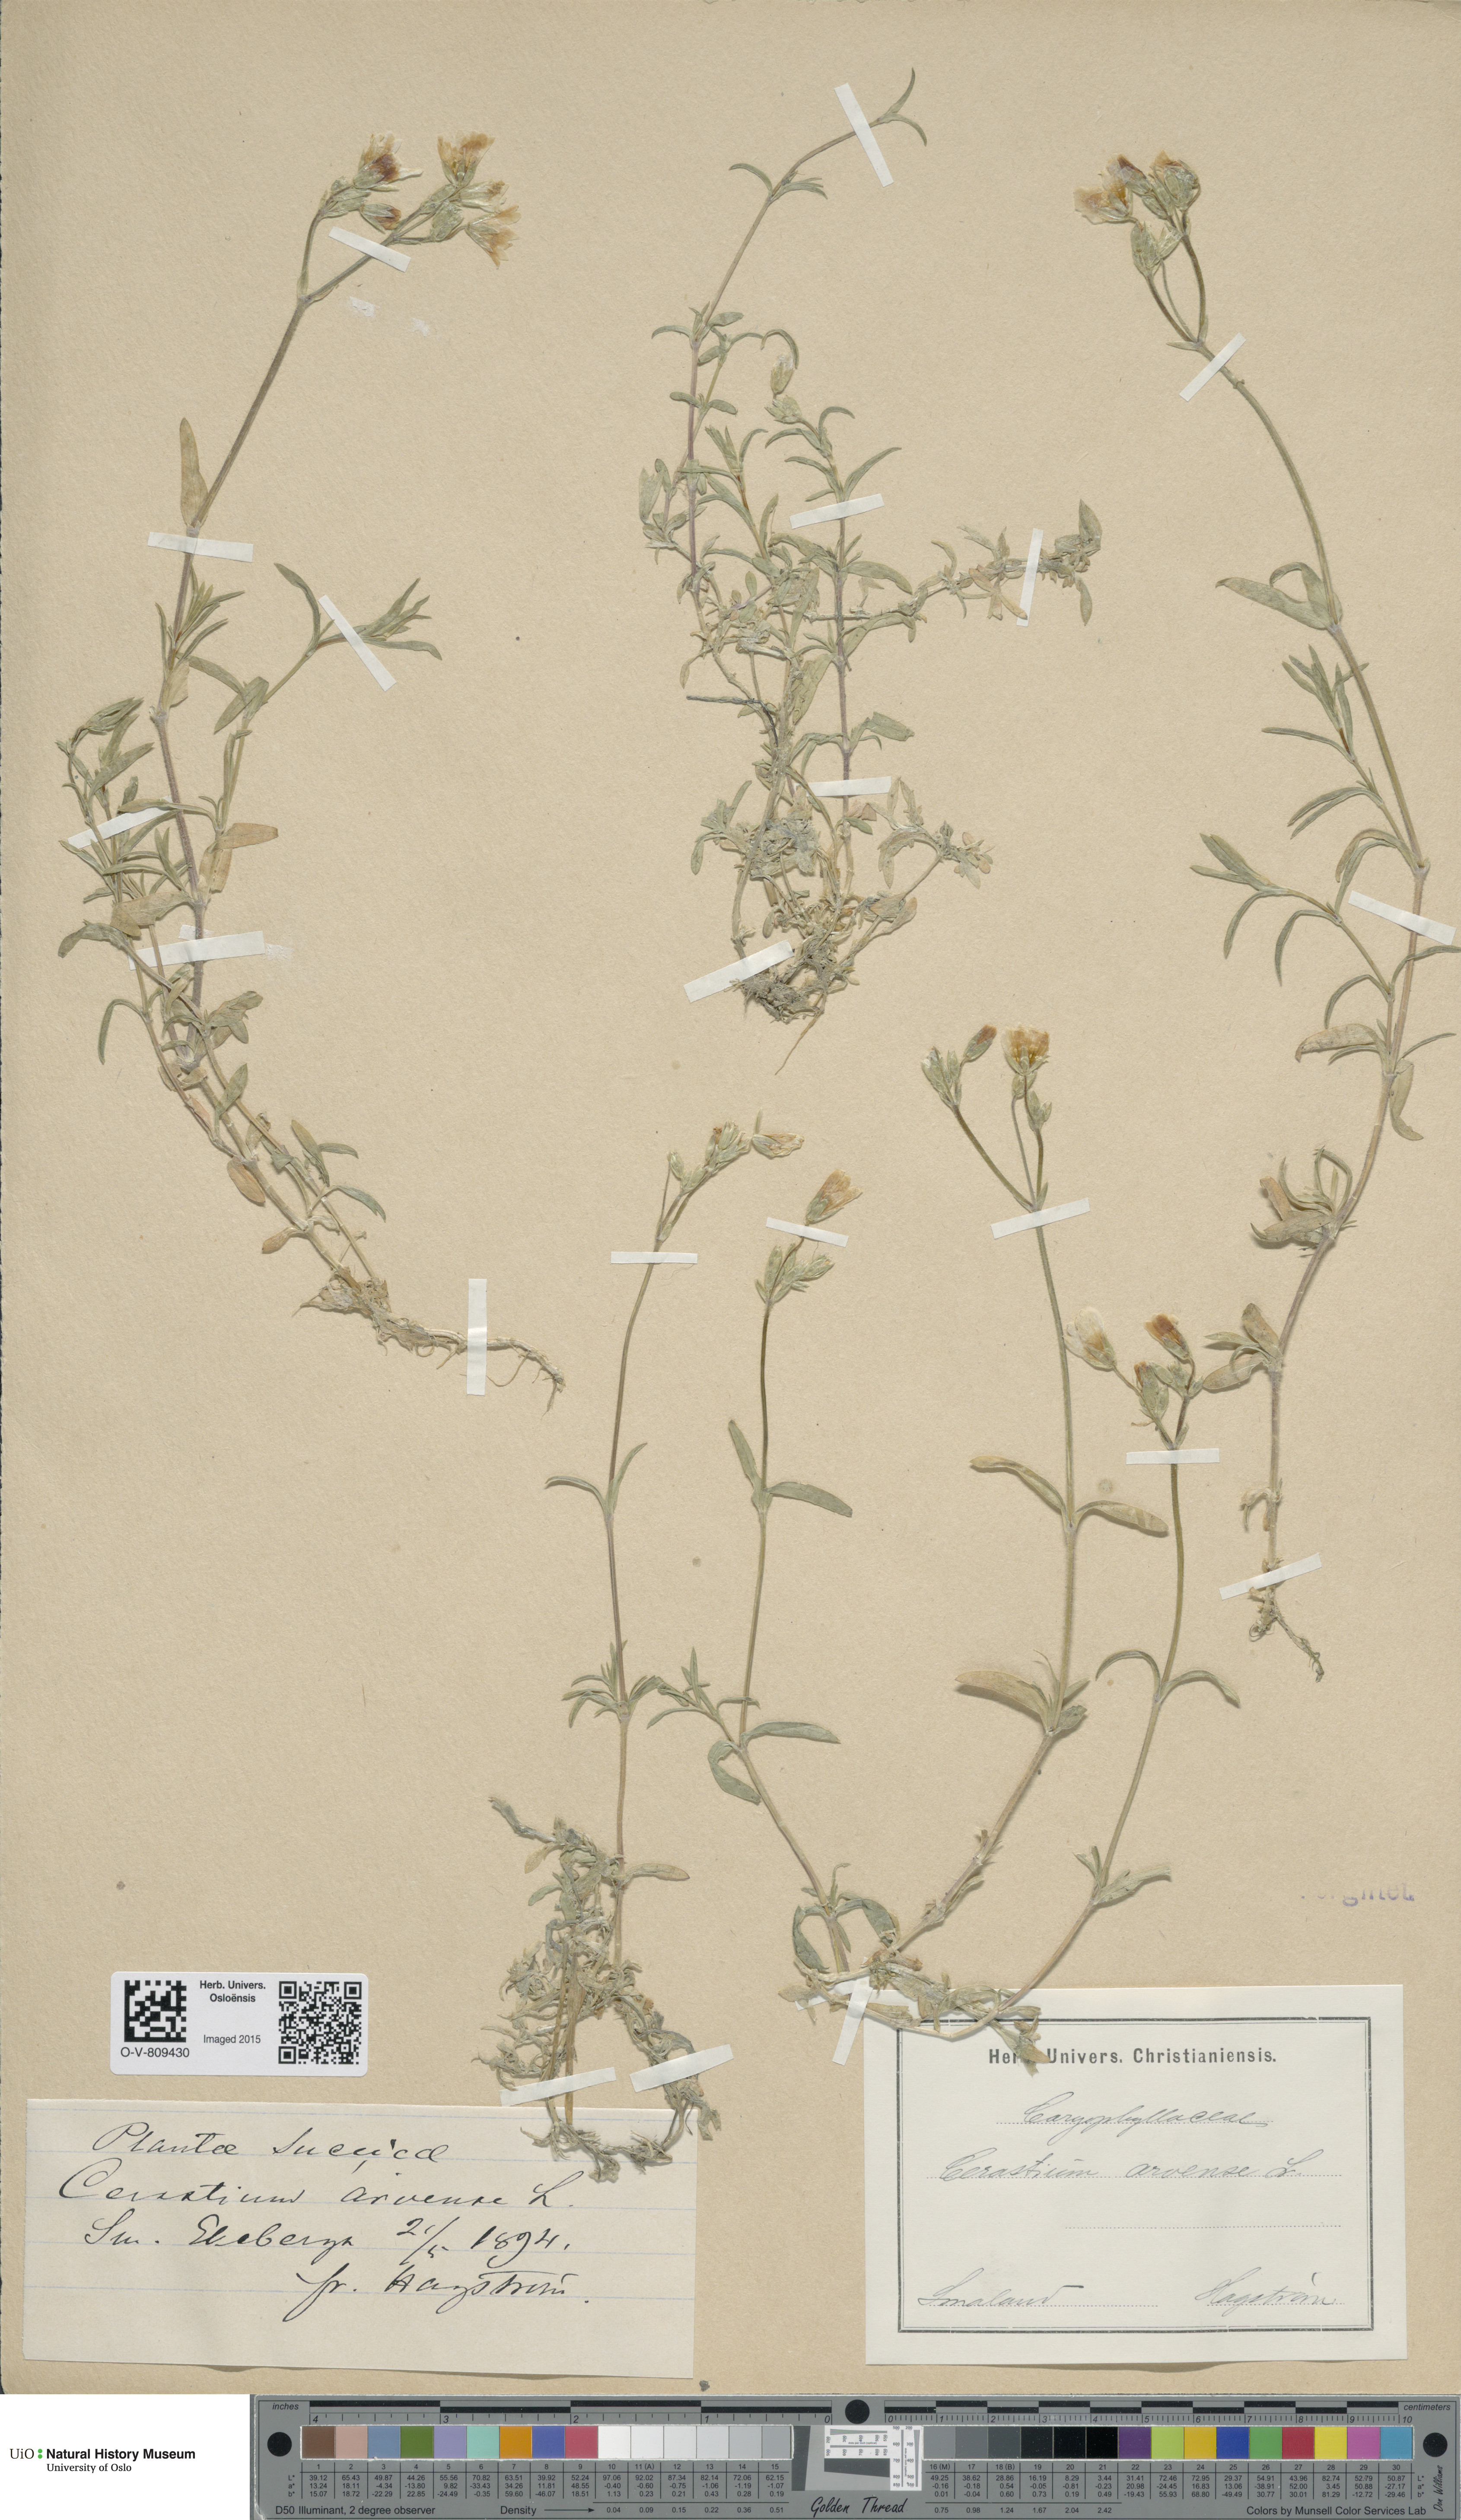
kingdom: Plantae
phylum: Tracheophyta
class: Magnoliopsida
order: Caryophyllales
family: Caryophyllaceae
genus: Cerastium
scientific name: Cerastium arvense
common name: Field mouse-ear
